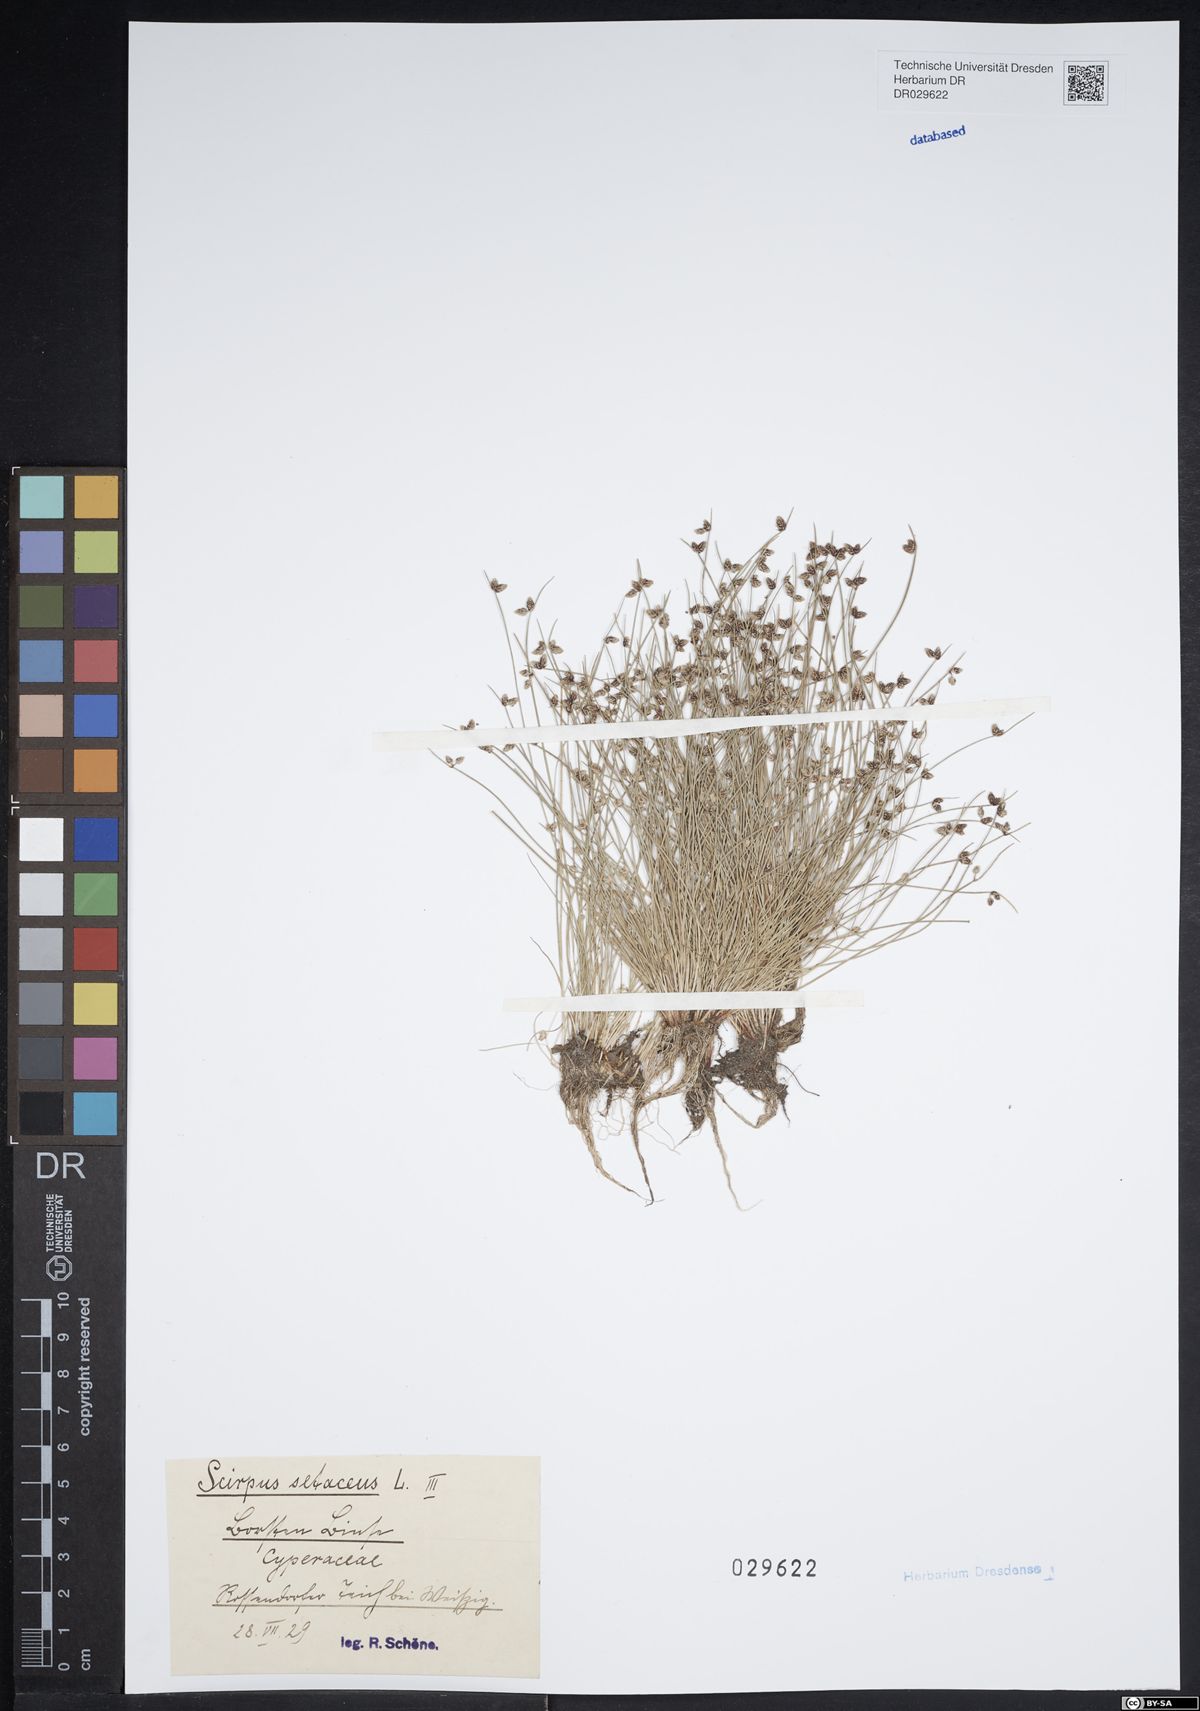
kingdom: Plantae
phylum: Tracheophyta
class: Liliopsida
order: Poales
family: Cyperaceae
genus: Isolepis
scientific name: Isolepis setacea
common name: Bristle club-rush
